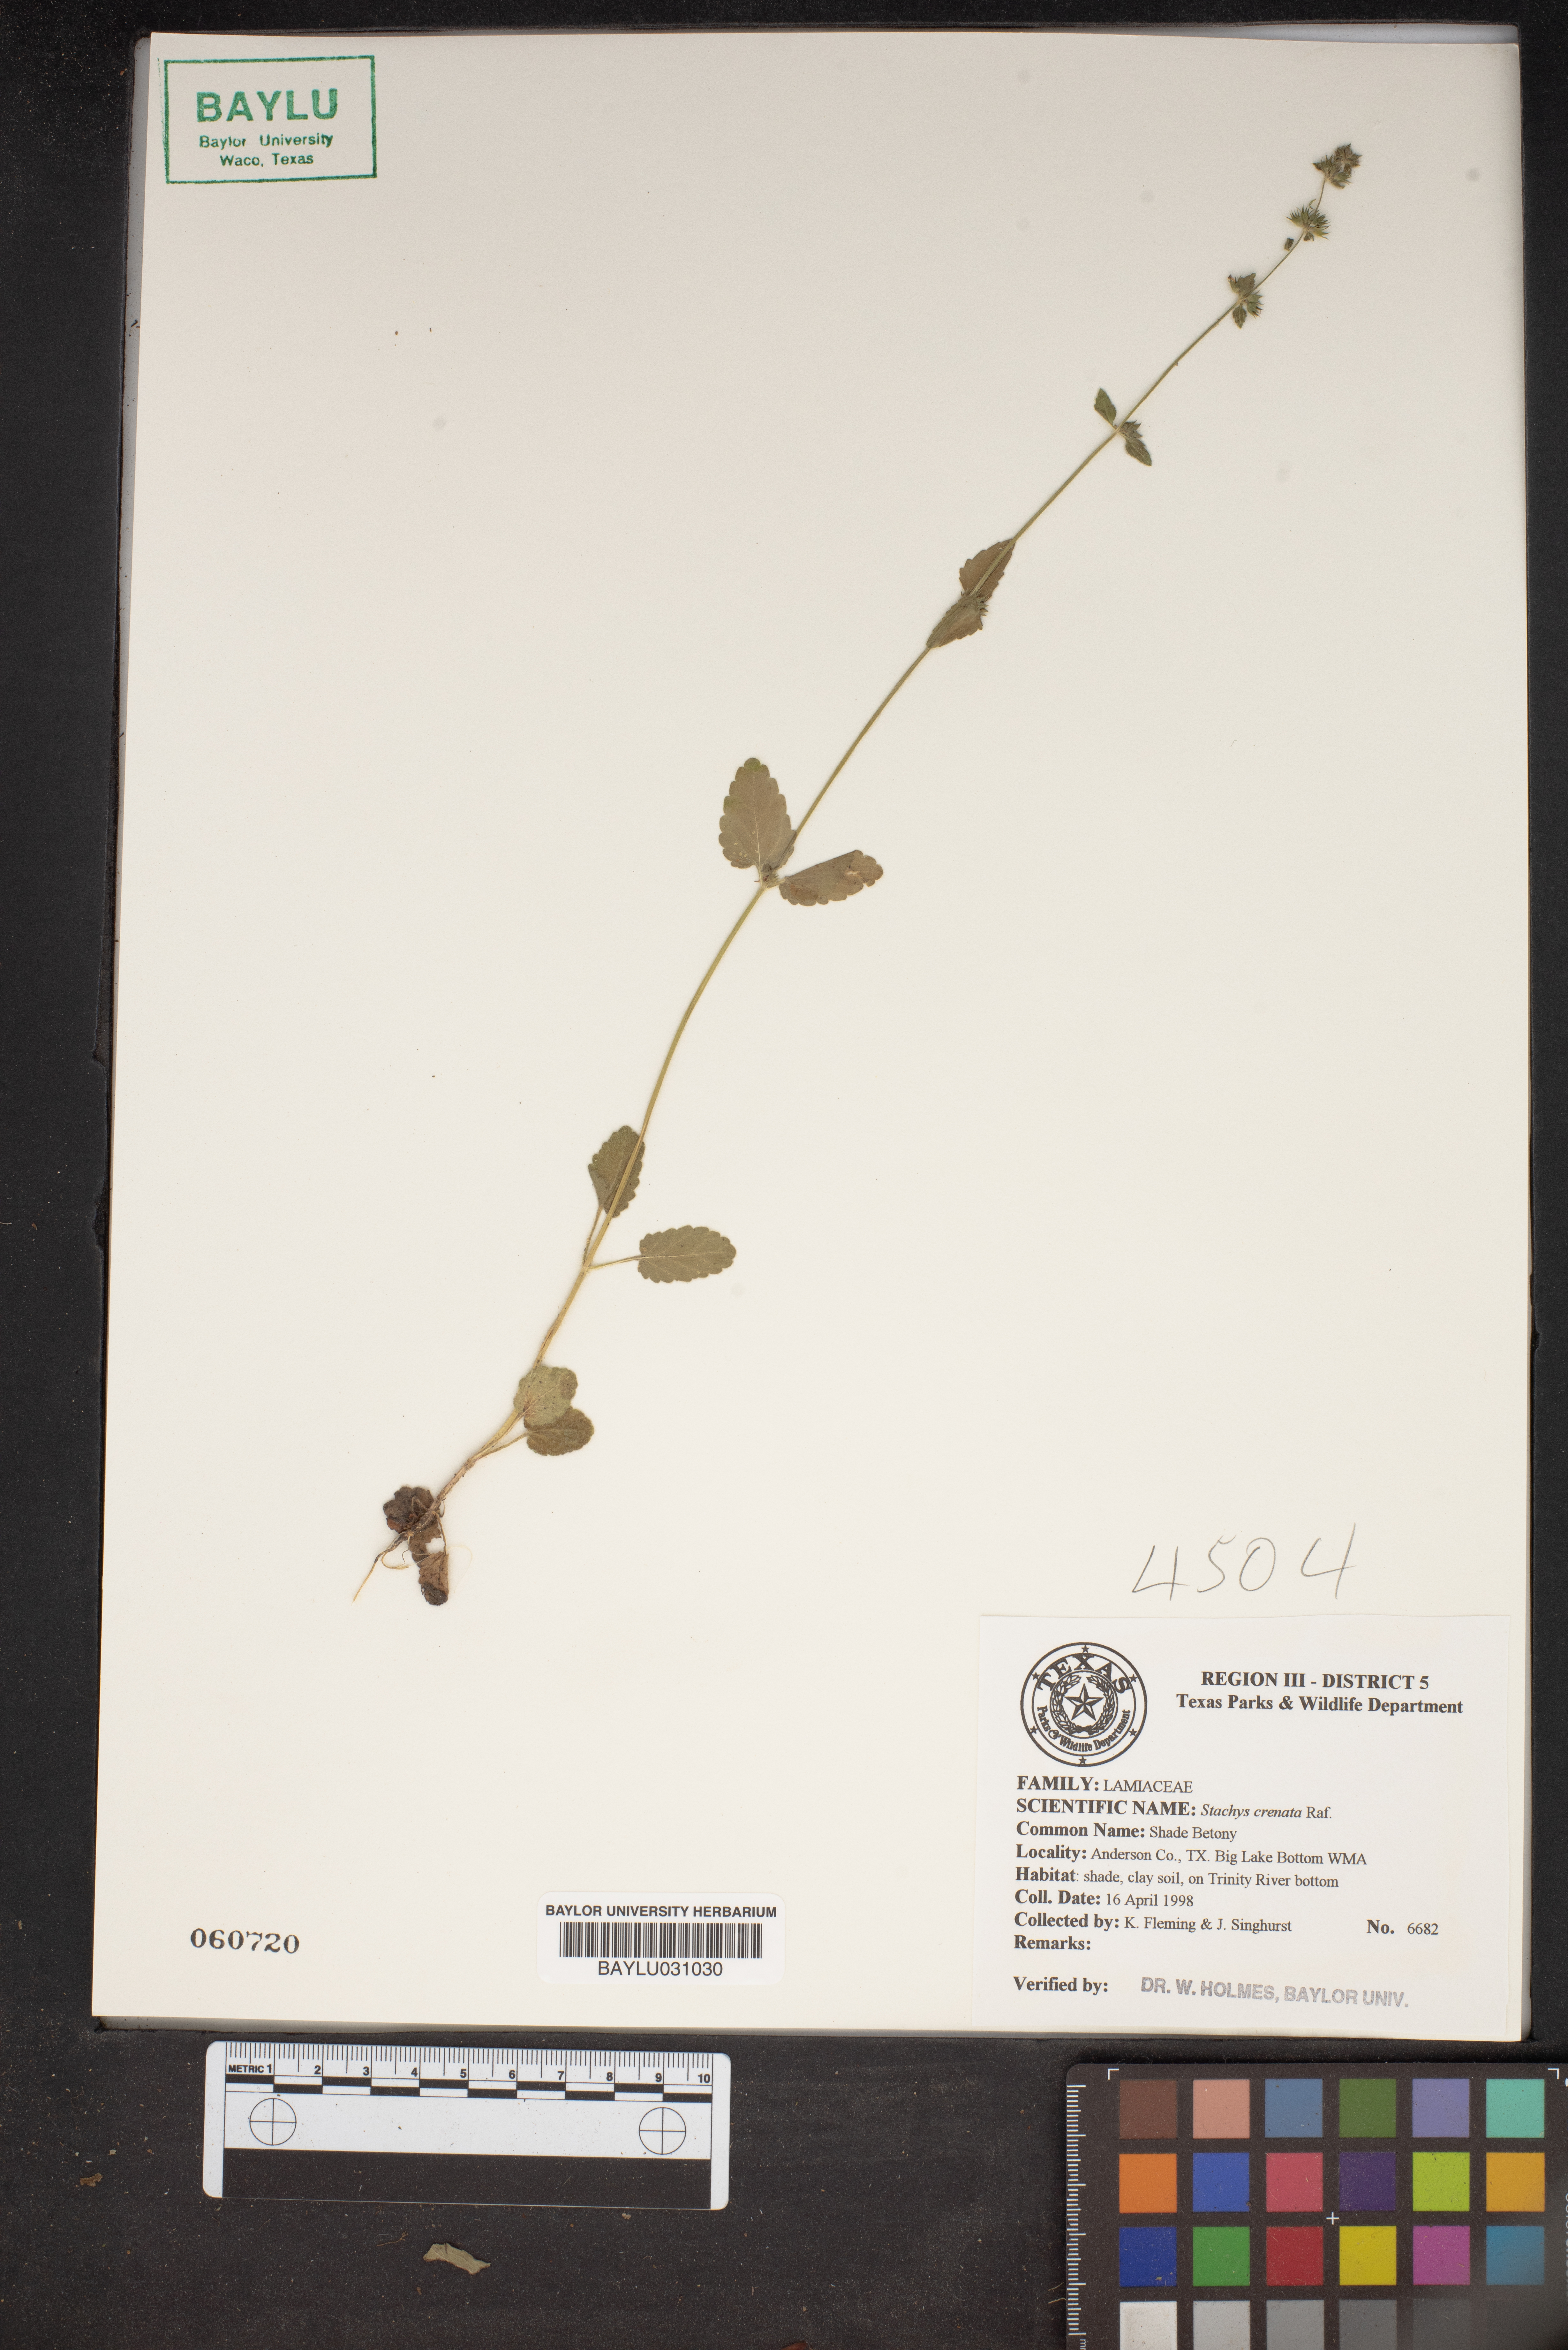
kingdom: Plantae
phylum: Tracheophyta
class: Magnoliopsida
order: Lamiales
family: Lamiaceae
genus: Stachys
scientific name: Stachys agraria
